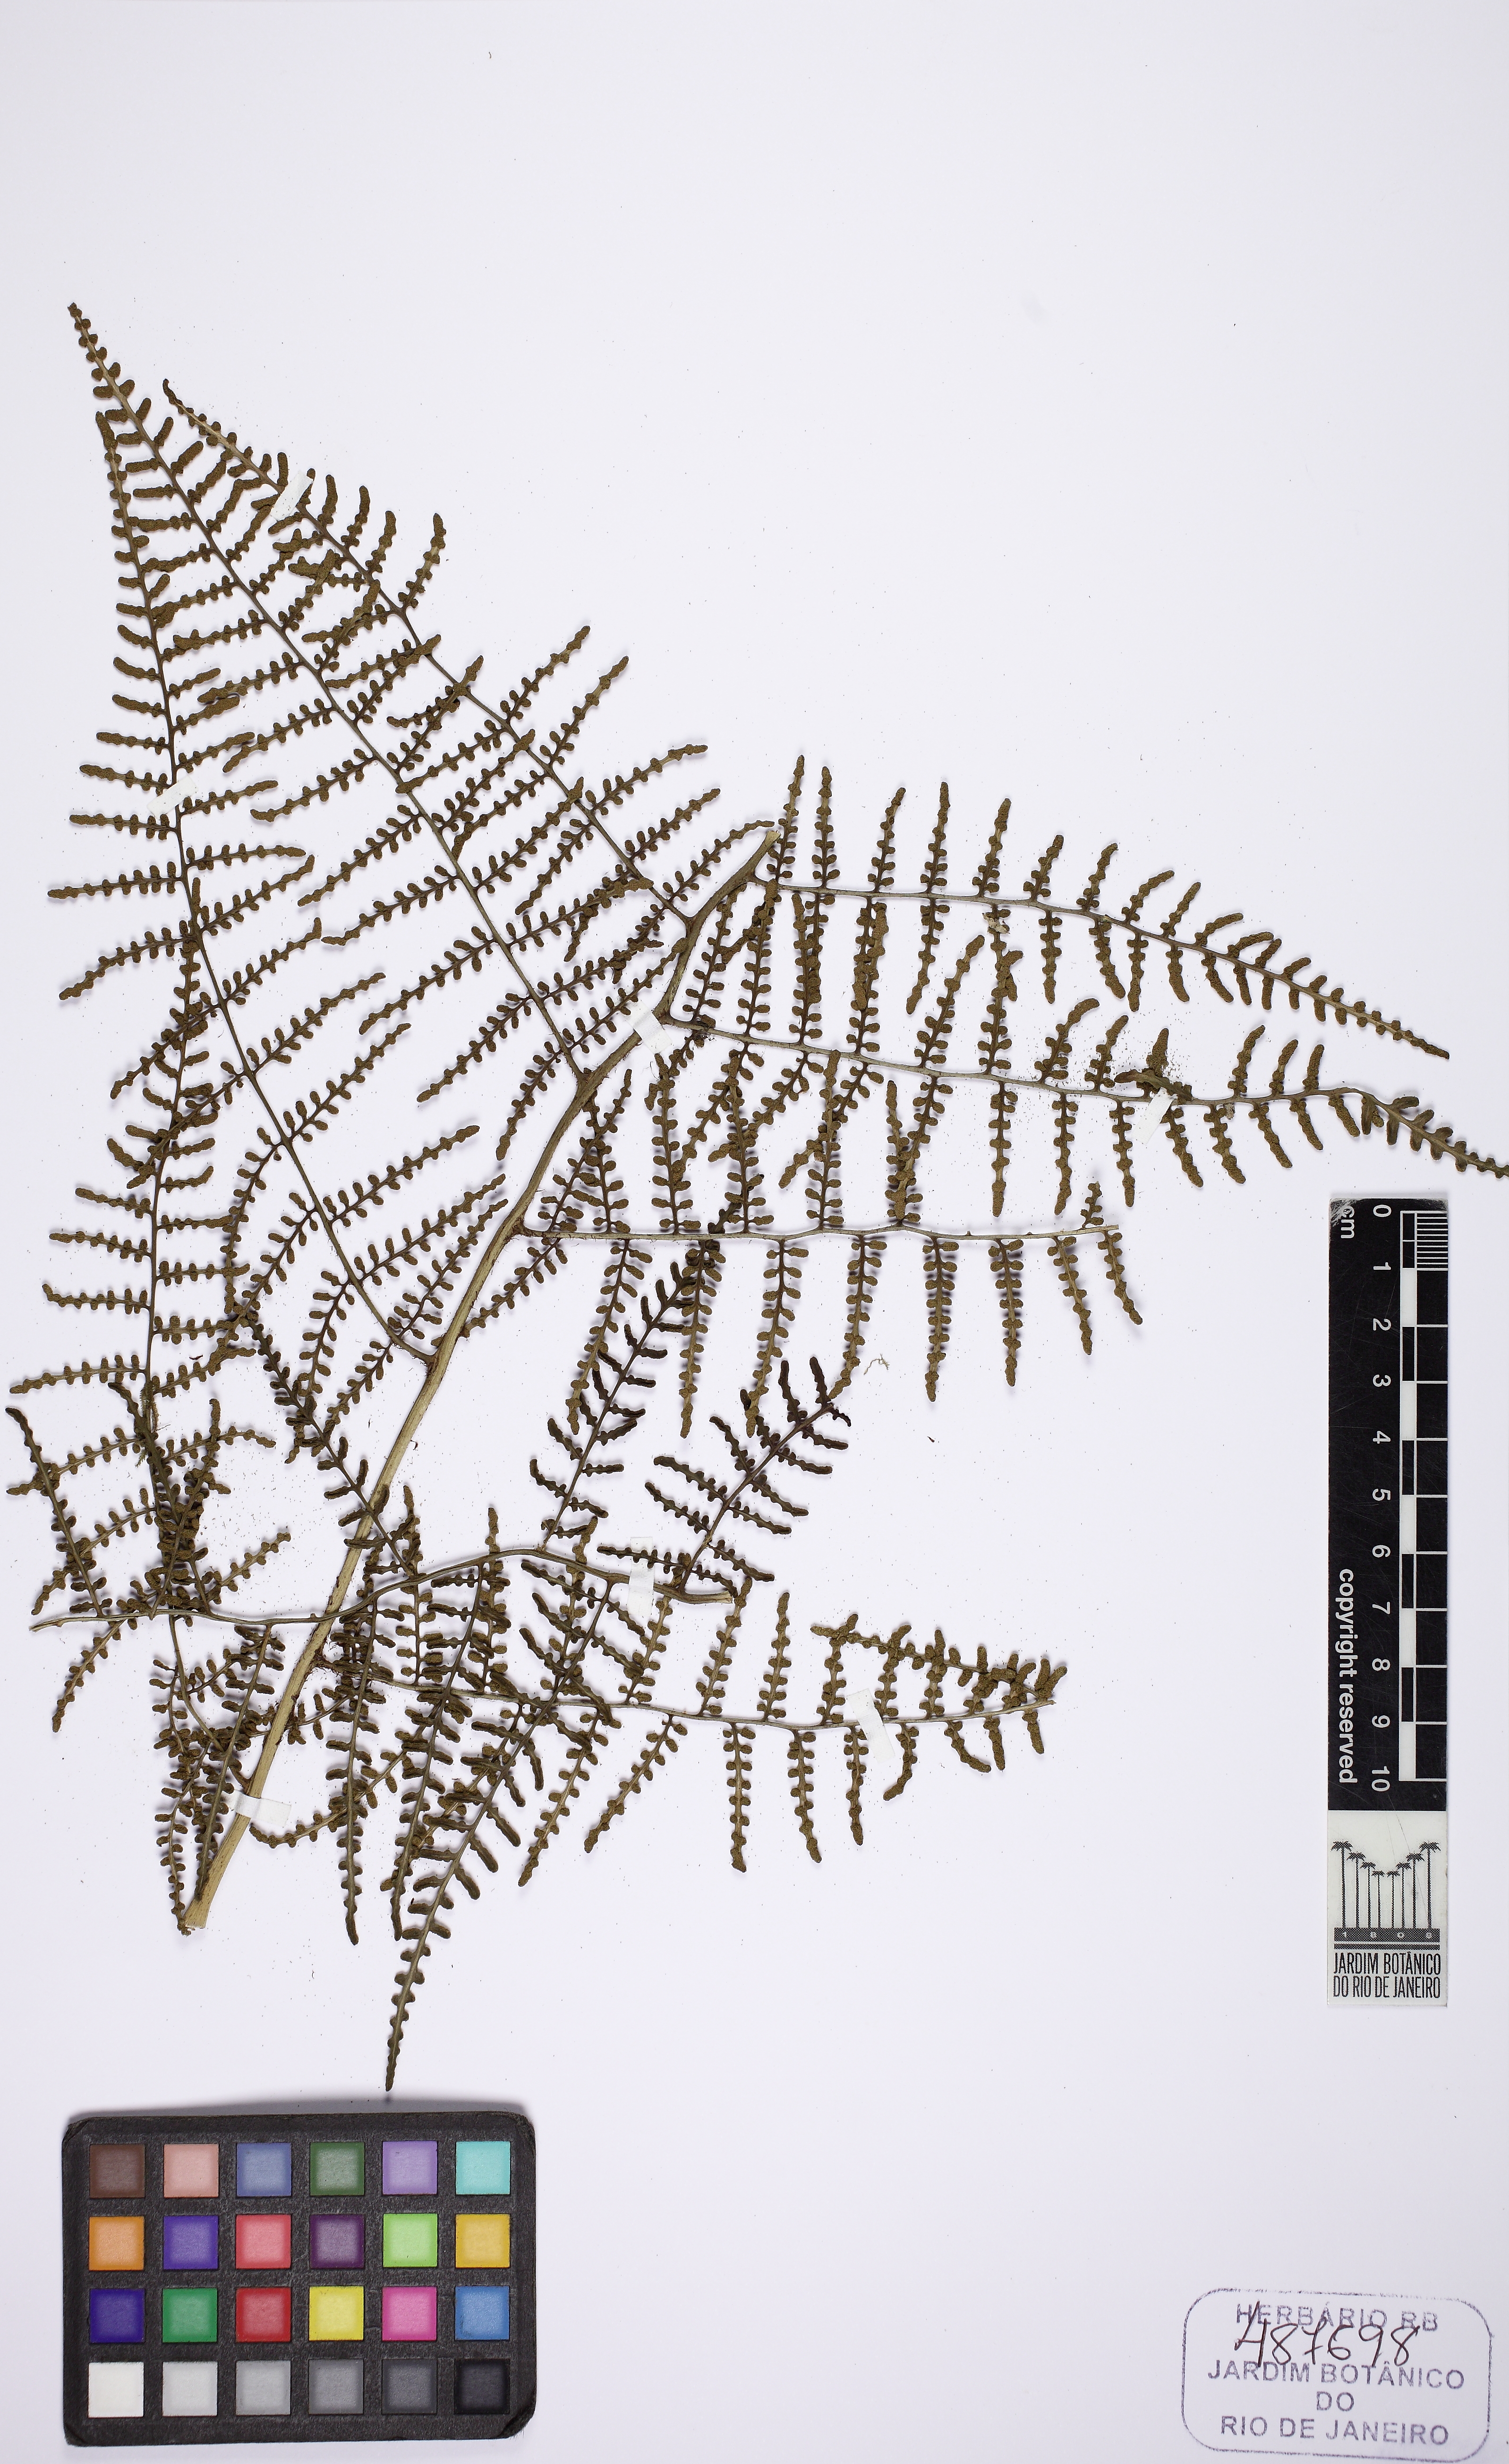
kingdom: Plantae
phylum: Tracheophyta
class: Polypodiopsida
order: Polypodiales
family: Dryopteridaceae
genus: Polybotrya
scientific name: Polybotrya speciosa
